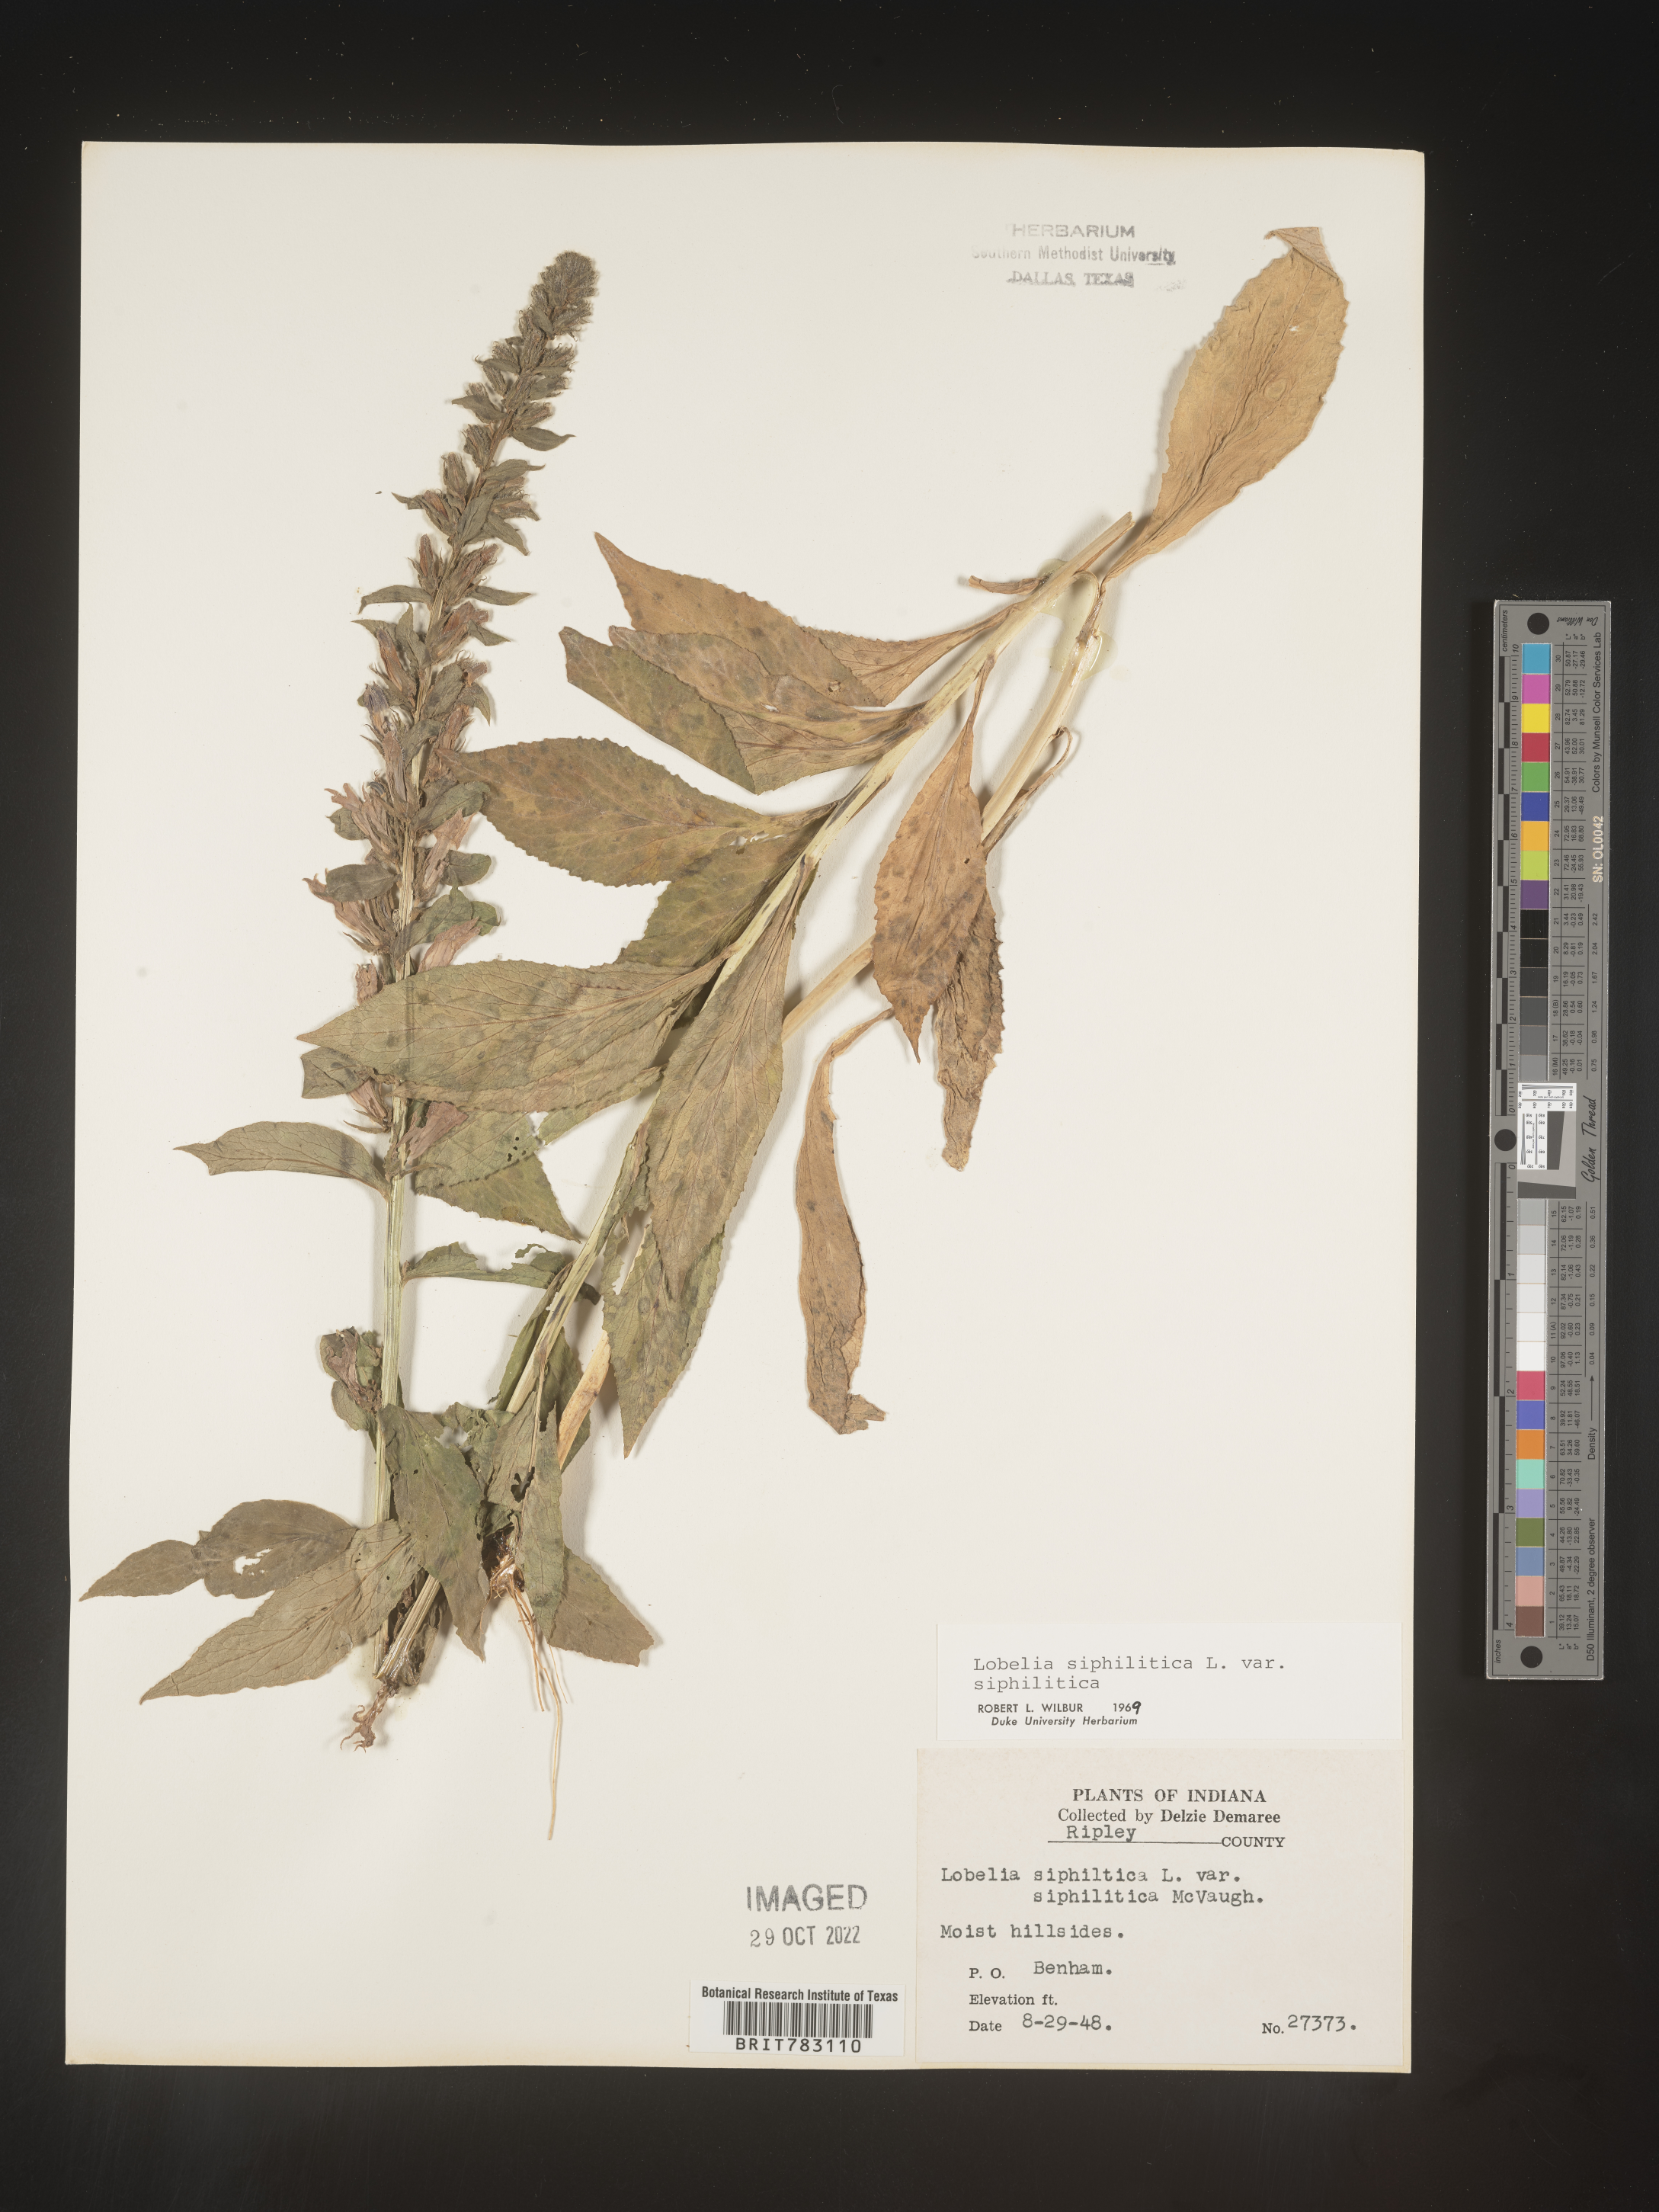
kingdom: Plantae
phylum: Tracheophyta
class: Magnoliopsida
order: Asterales
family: Campanulaceae
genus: Lobelia
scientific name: Lobelia siphilitica
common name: Great lobelia
